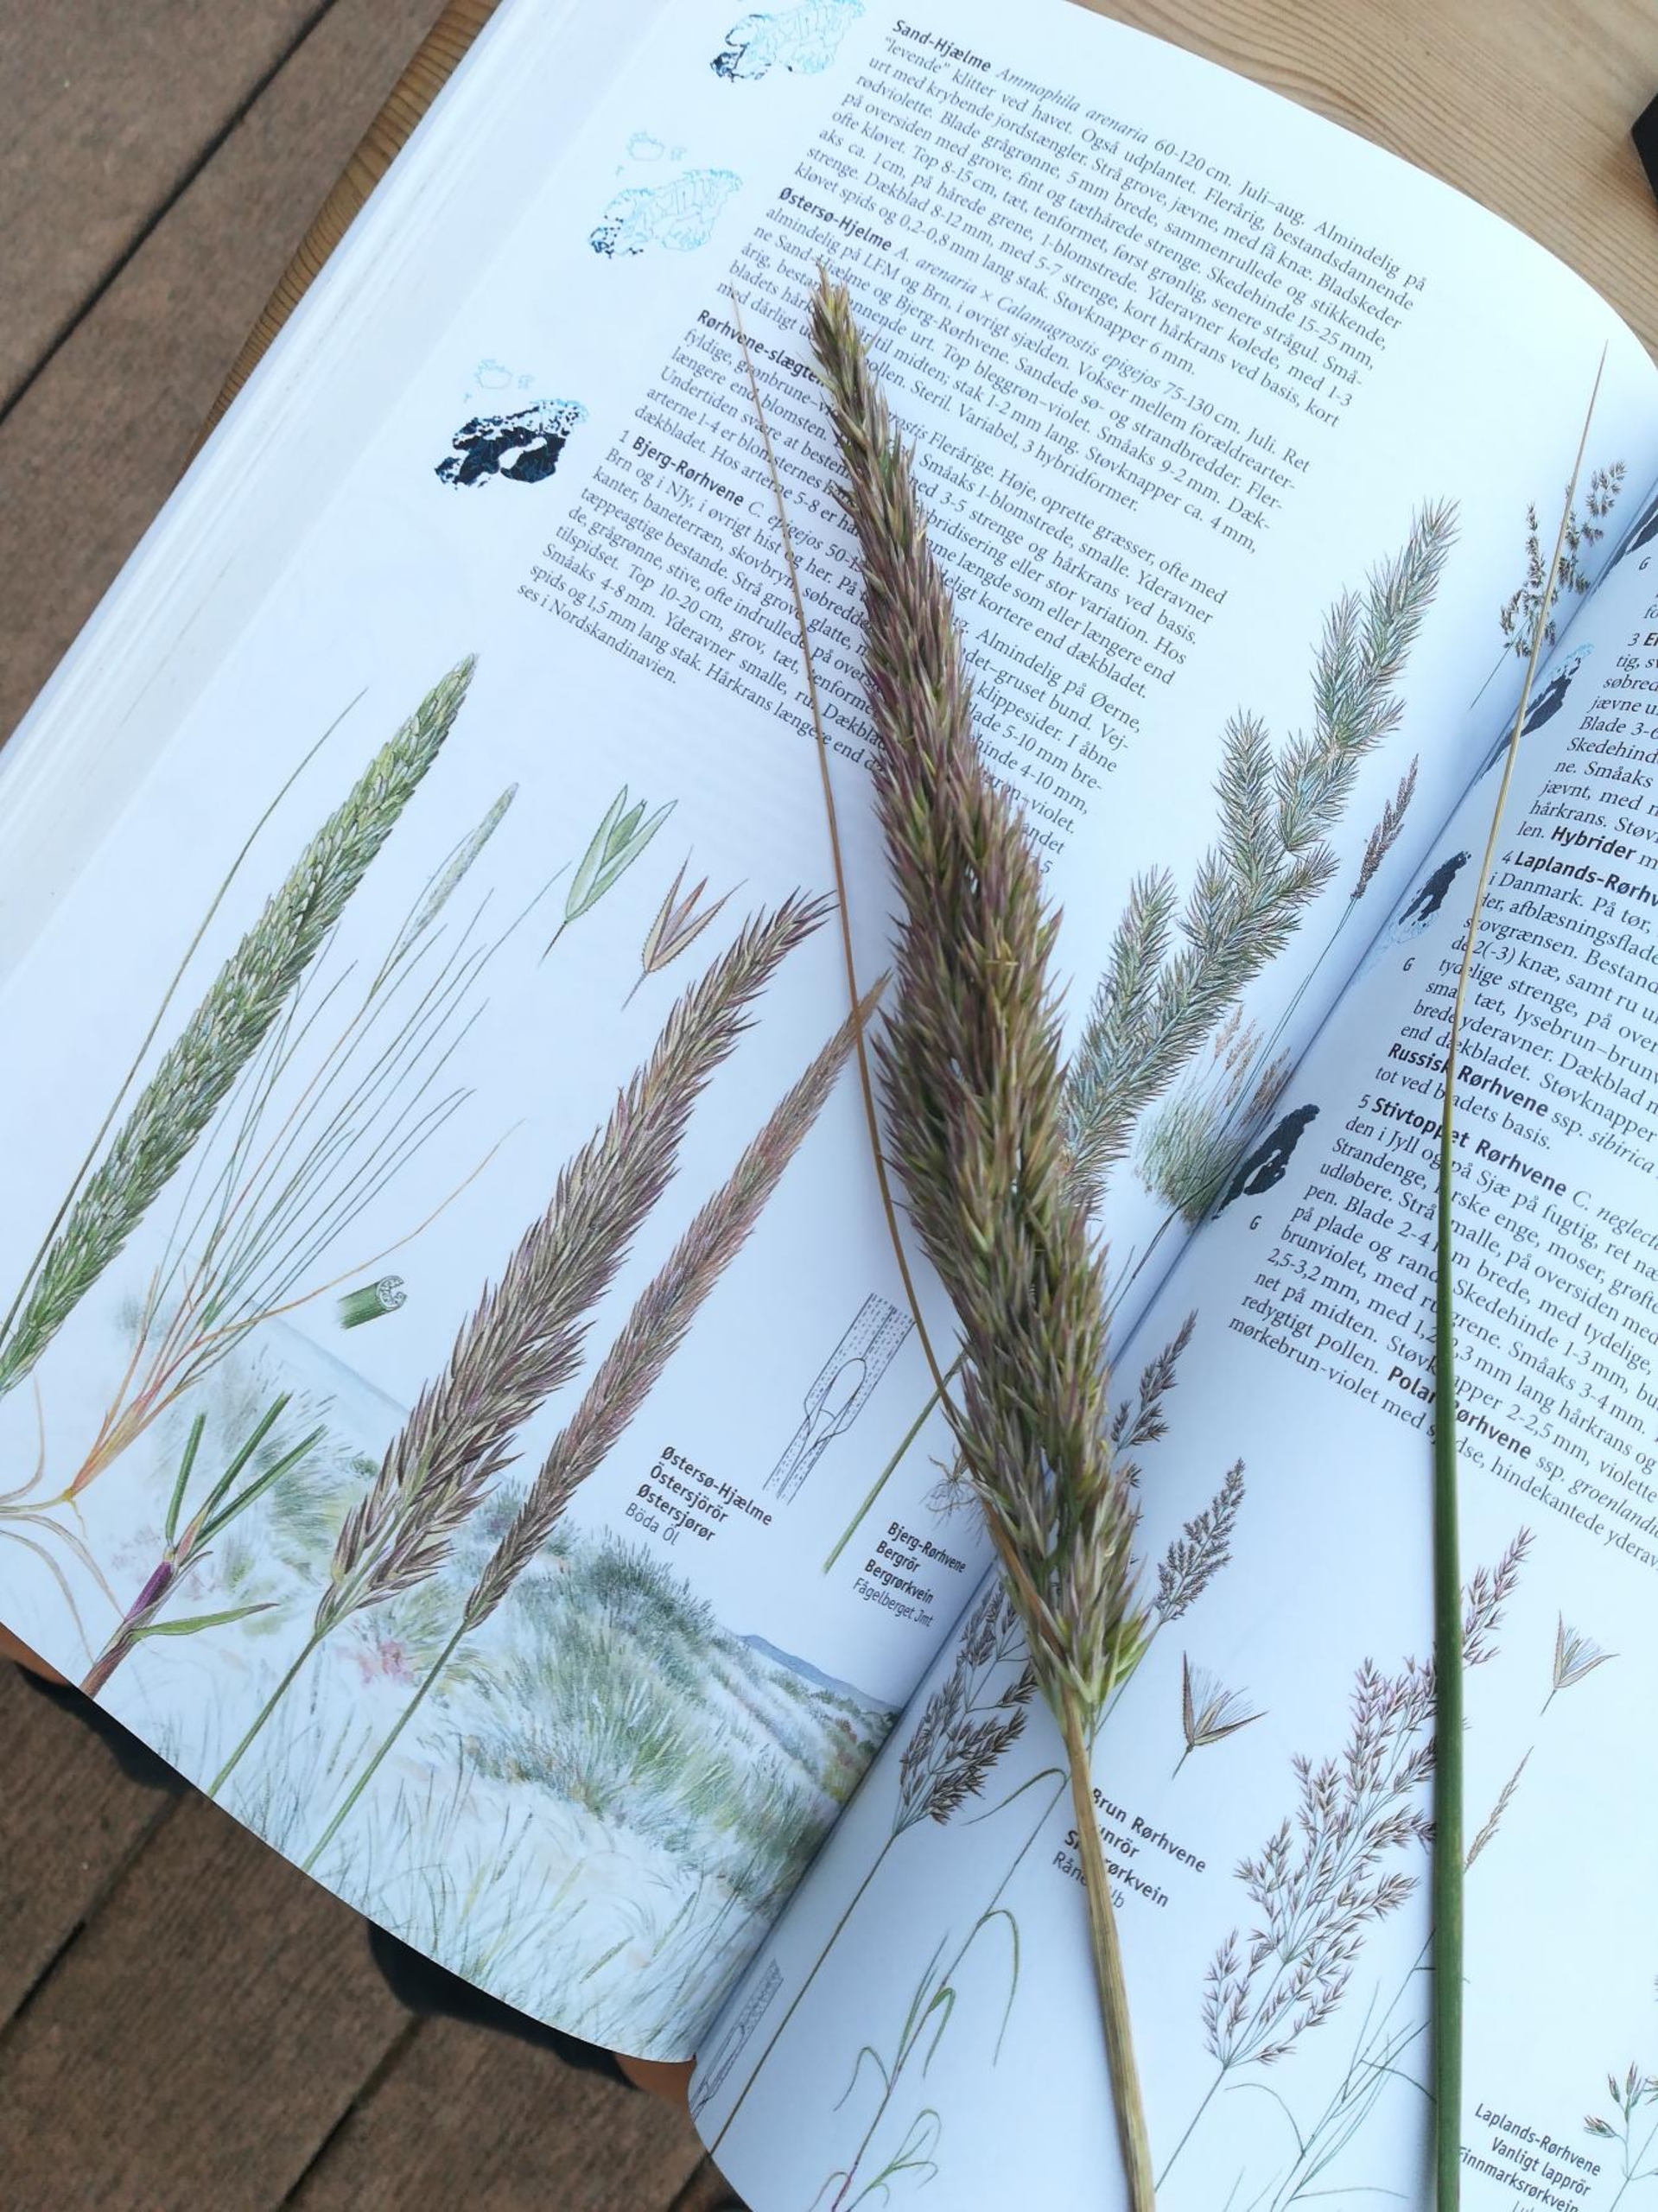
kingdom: Plantae
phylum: Tracheophyta
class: Liliopsida
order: Poales
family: Poaceae
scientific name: Poaceae
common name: Østersøhjælme
